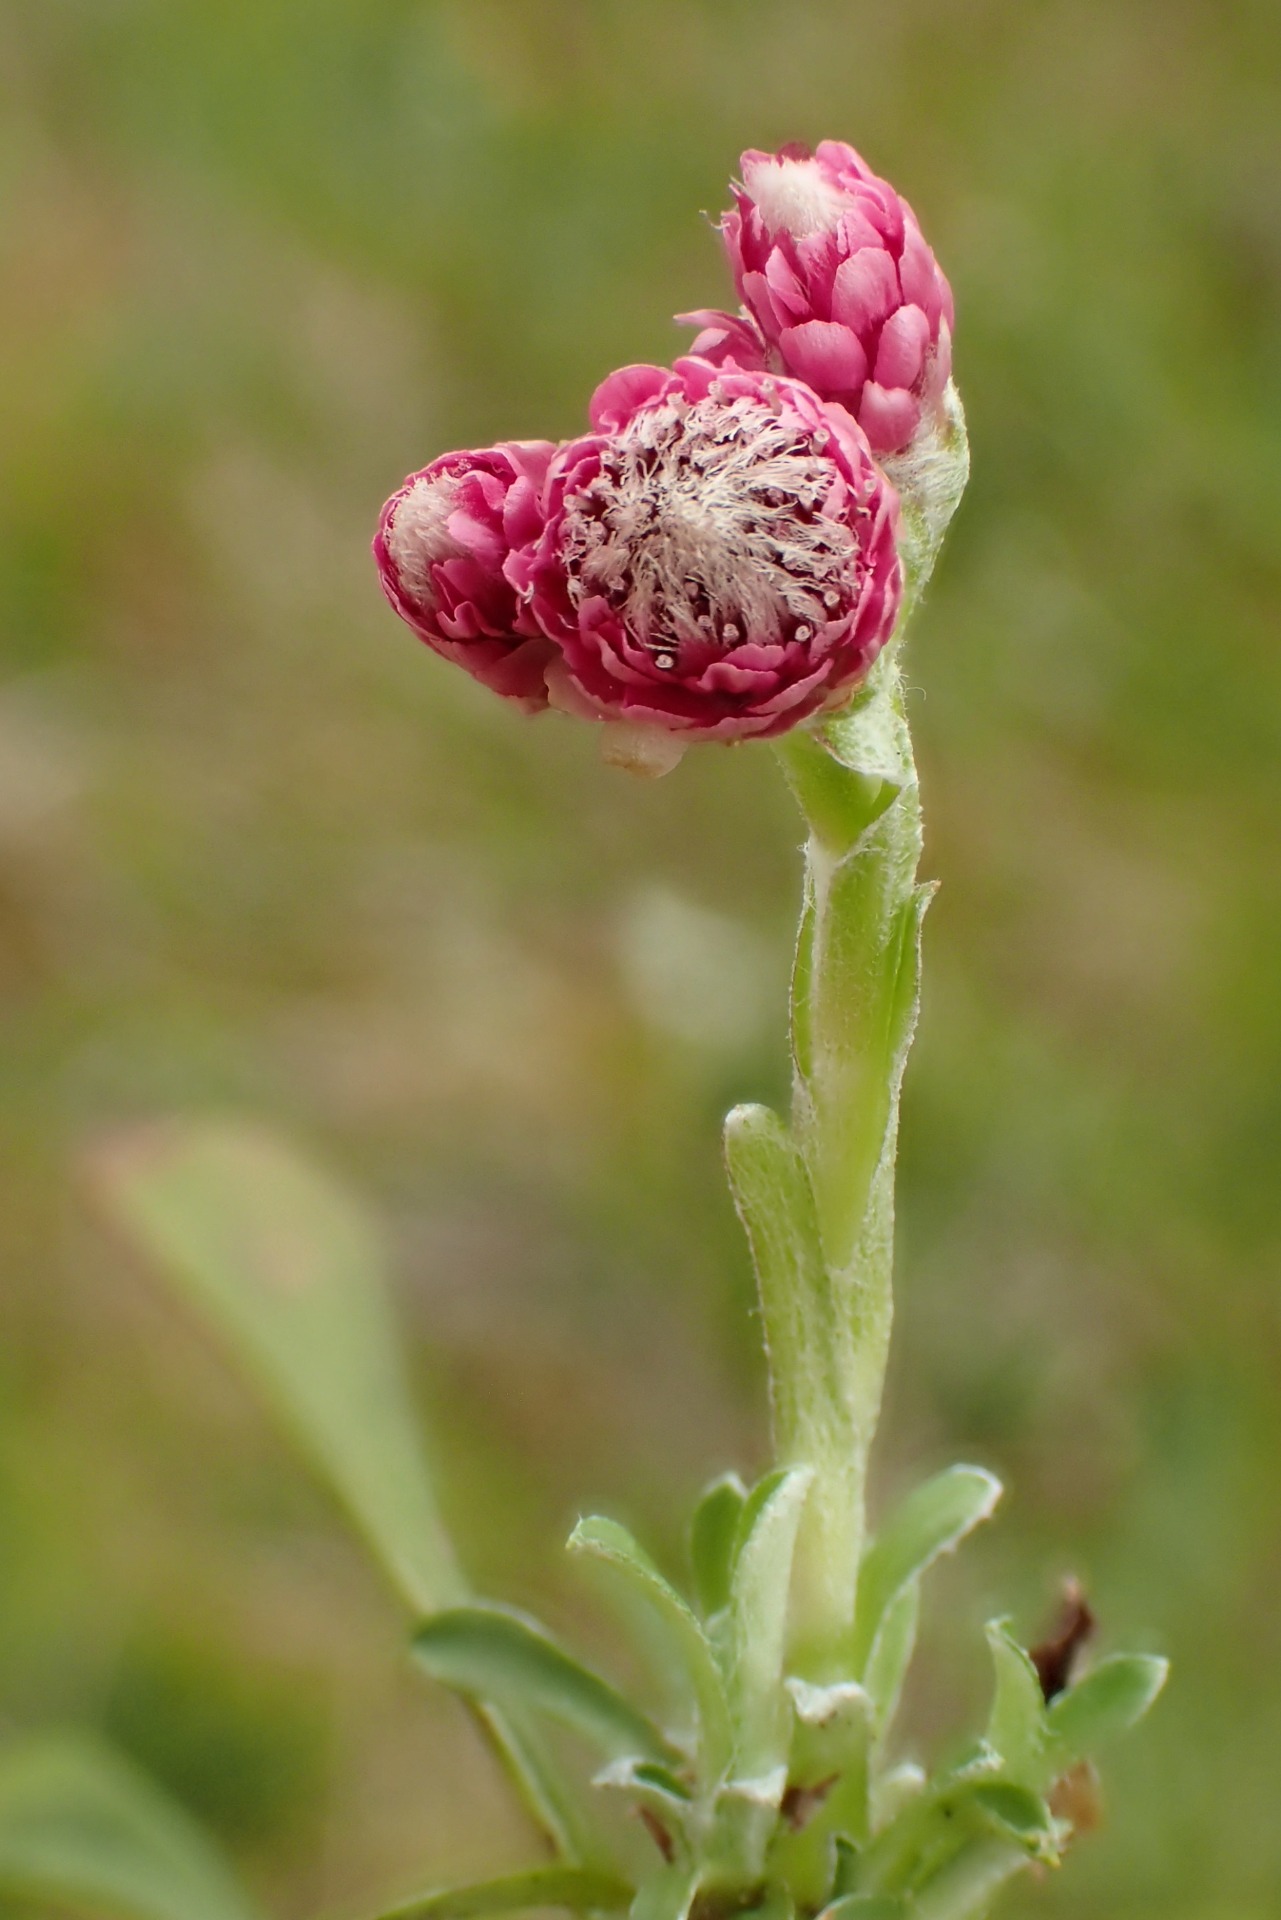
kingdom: Plantae
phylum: Tracheophyta
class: Magnoliopsida
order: Asterales
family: Asteraceae
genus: Antennaria
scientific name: Antennaria dioica
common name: Kattefod
